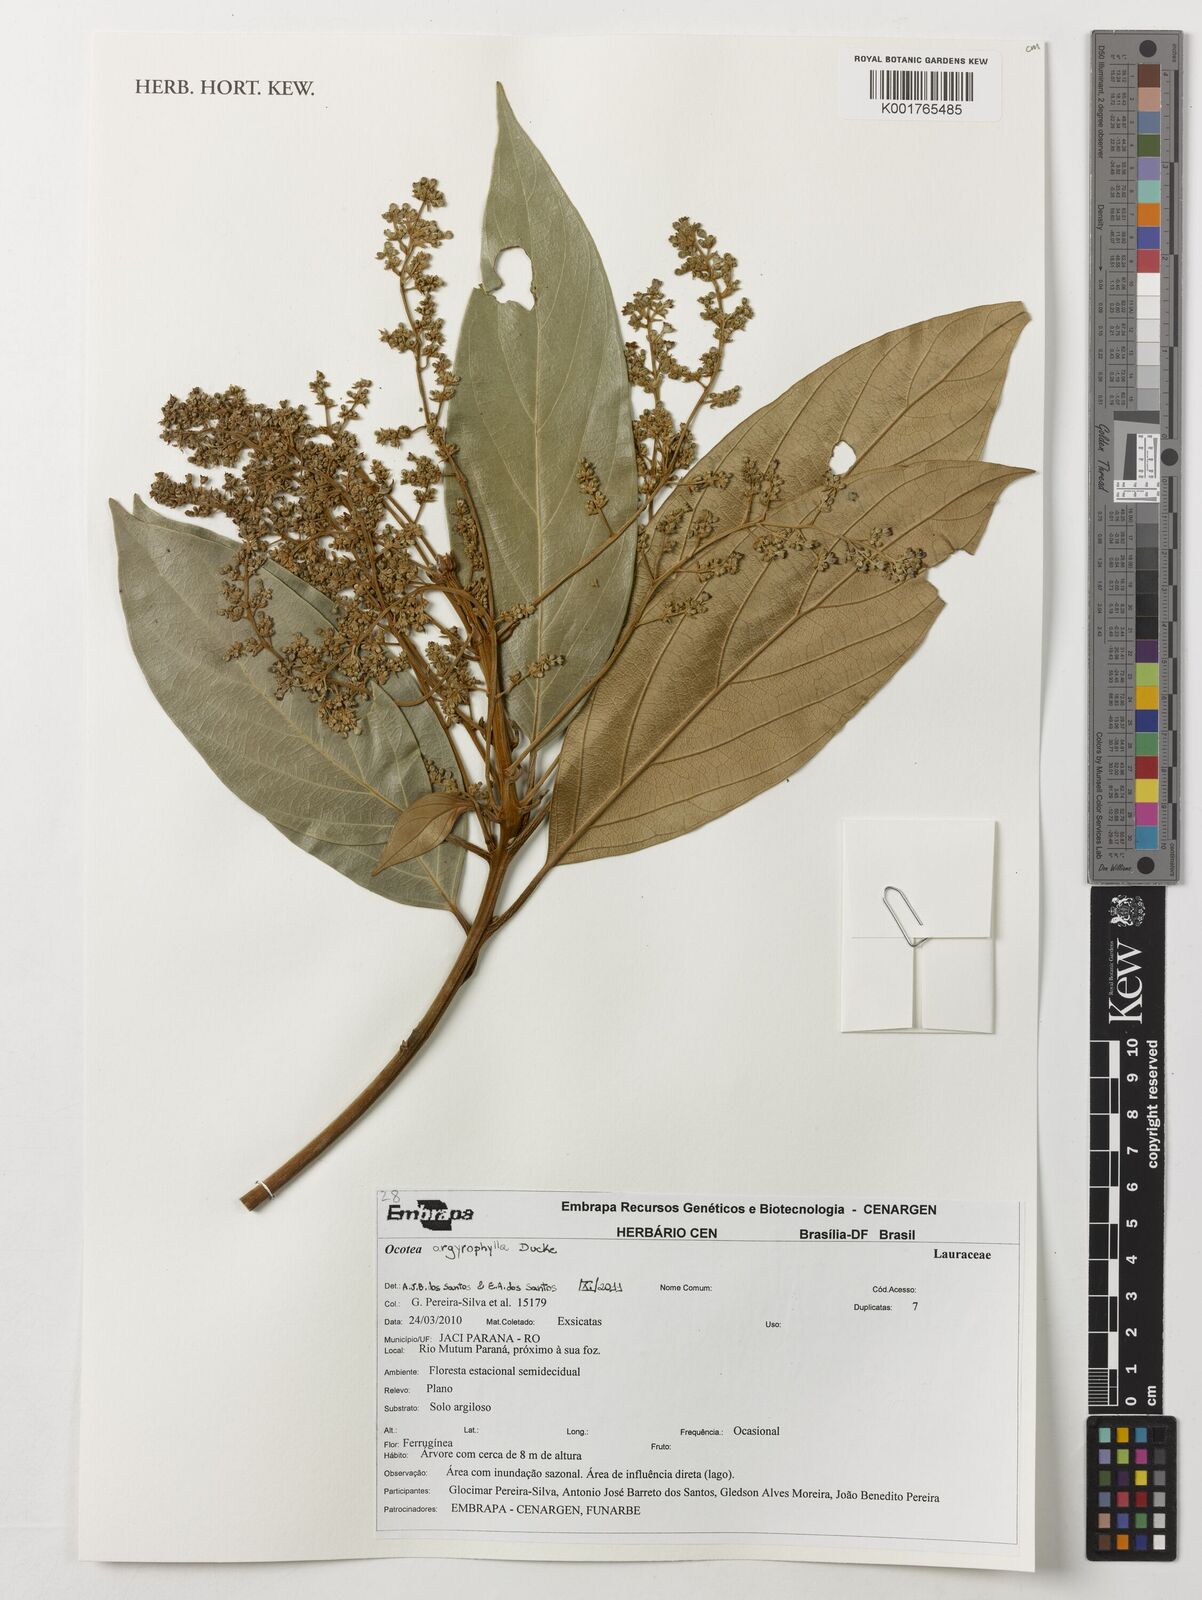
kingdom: Plantae
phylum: Tracheophyta
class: Magnoliopsida
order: Laurales
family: Lauraceae
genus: Ocotea
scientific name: Ocotea argyrophylla
